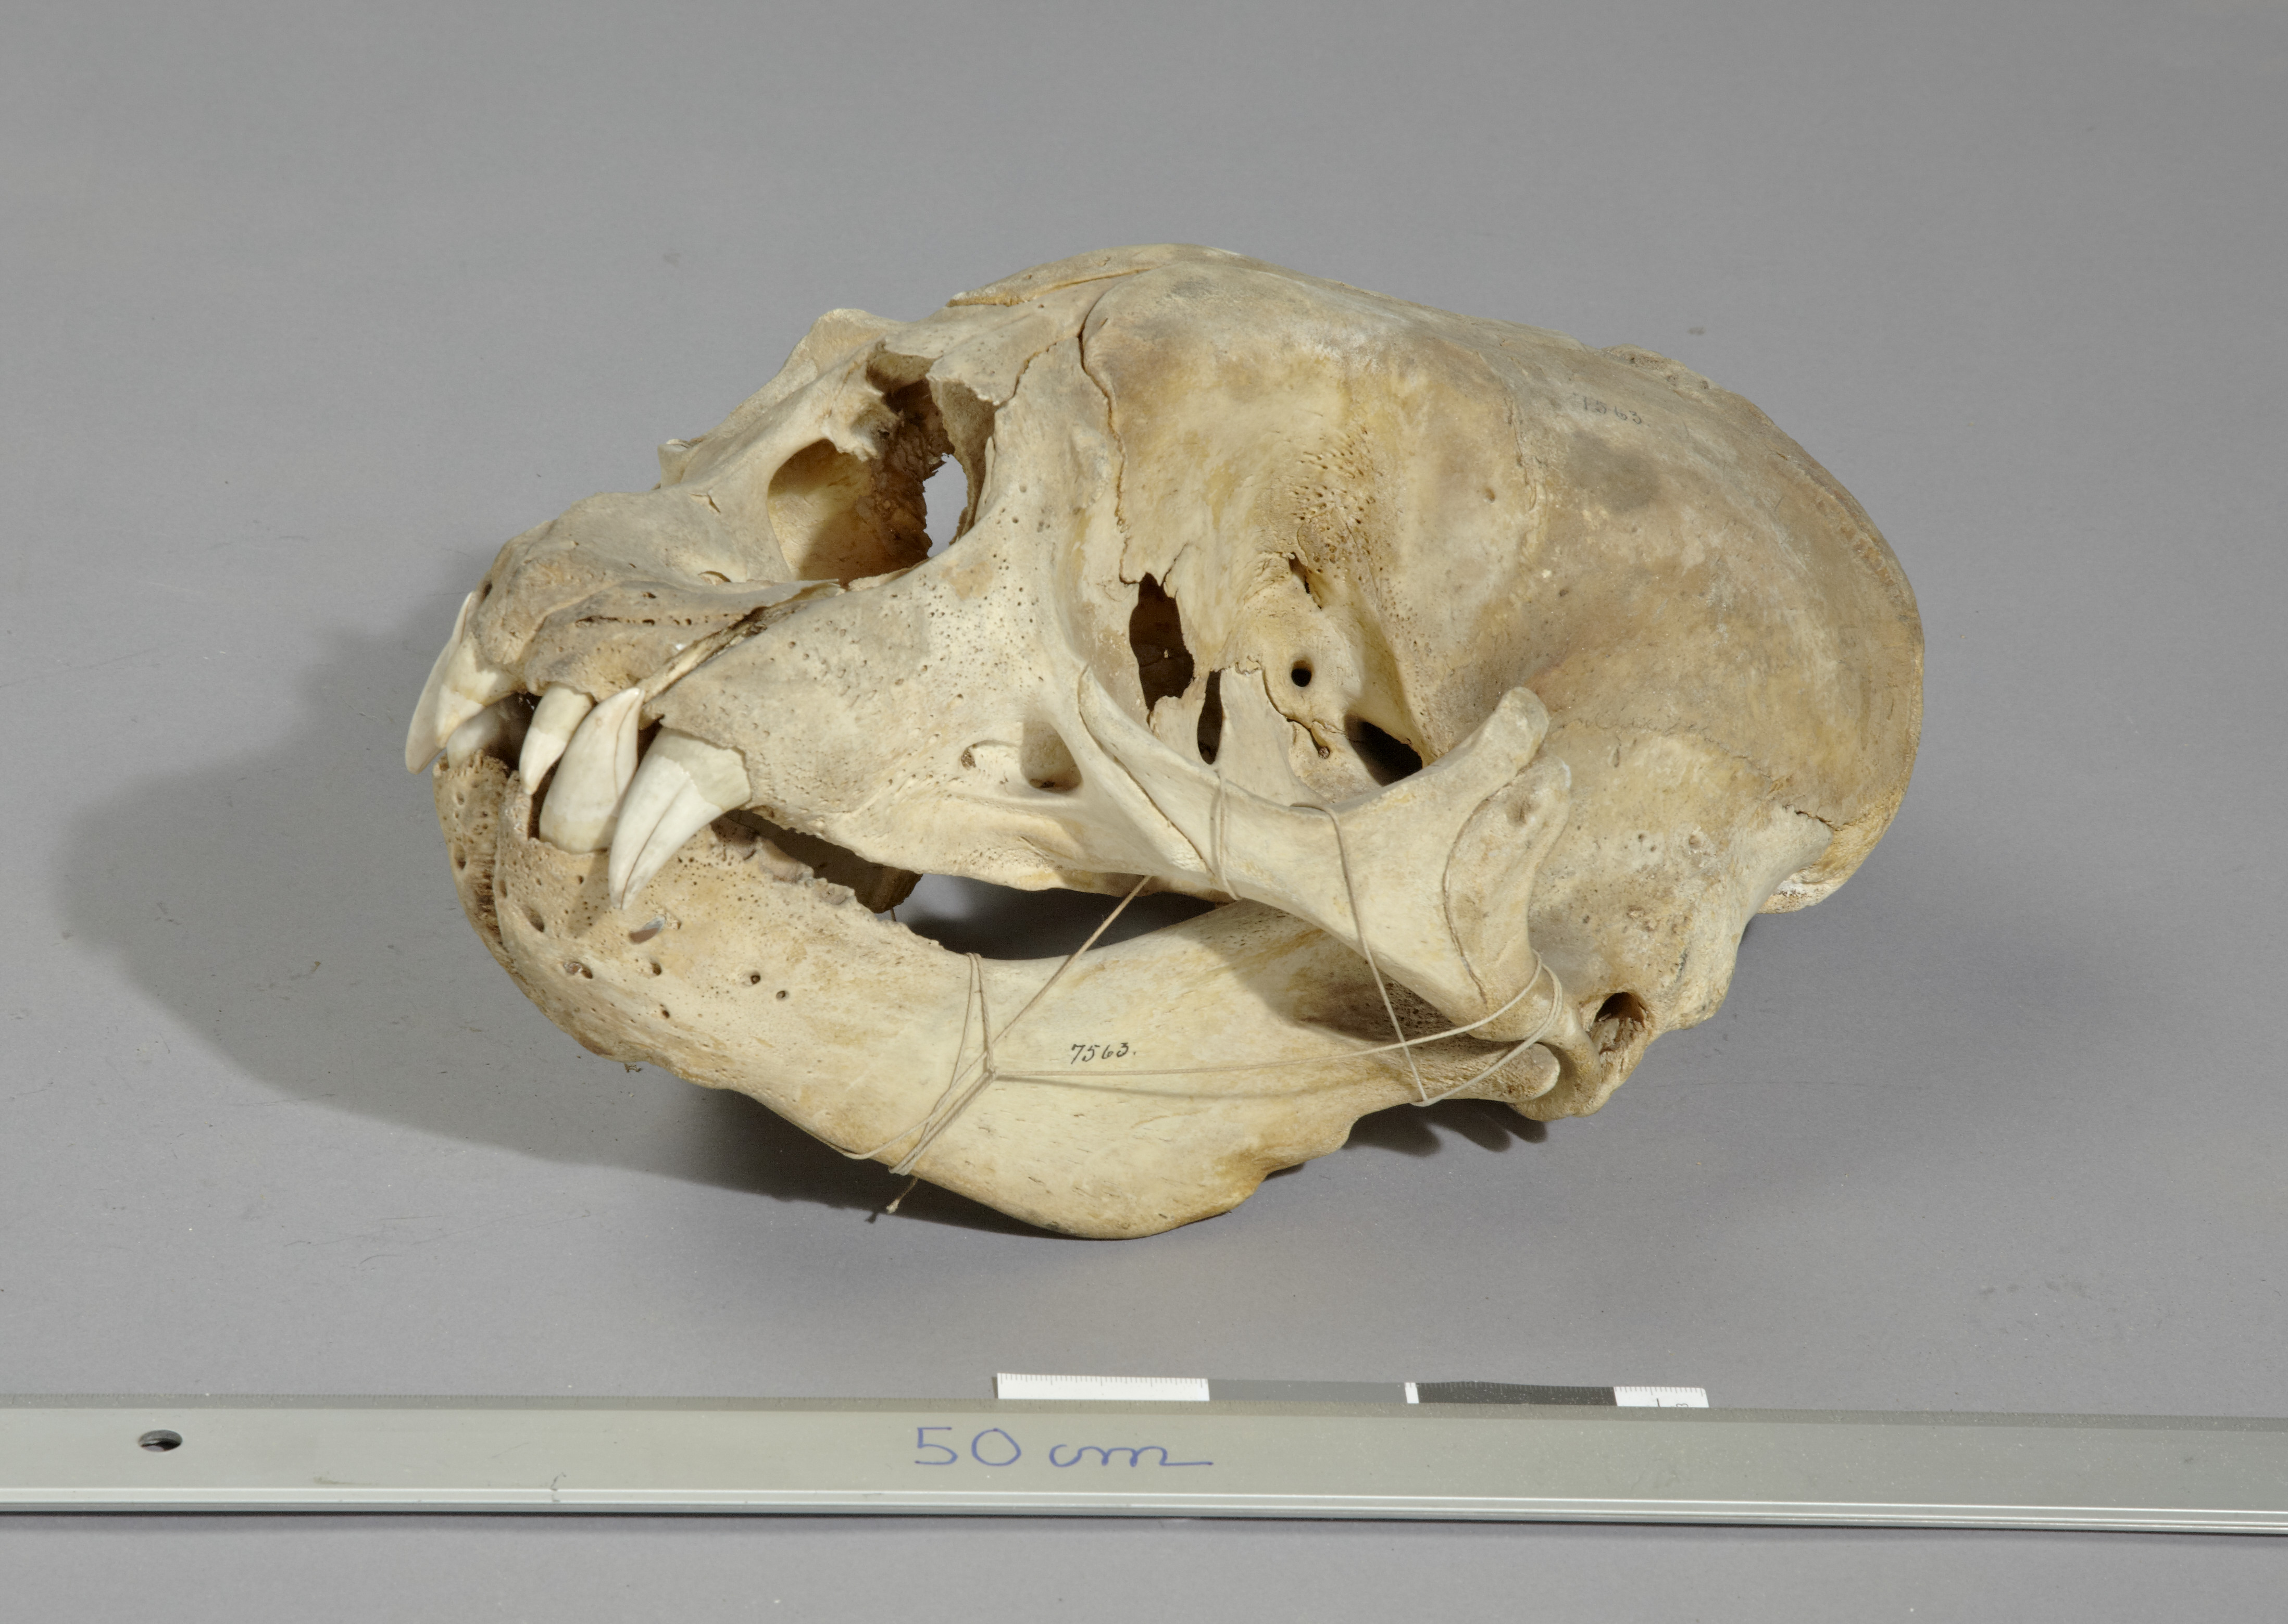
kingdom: Animalia
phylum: Chordata
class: Mammalia
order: Carnivora
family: Phocidae
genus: Mirounga
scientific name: Mirounga leonina
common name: Southern elephant seal
